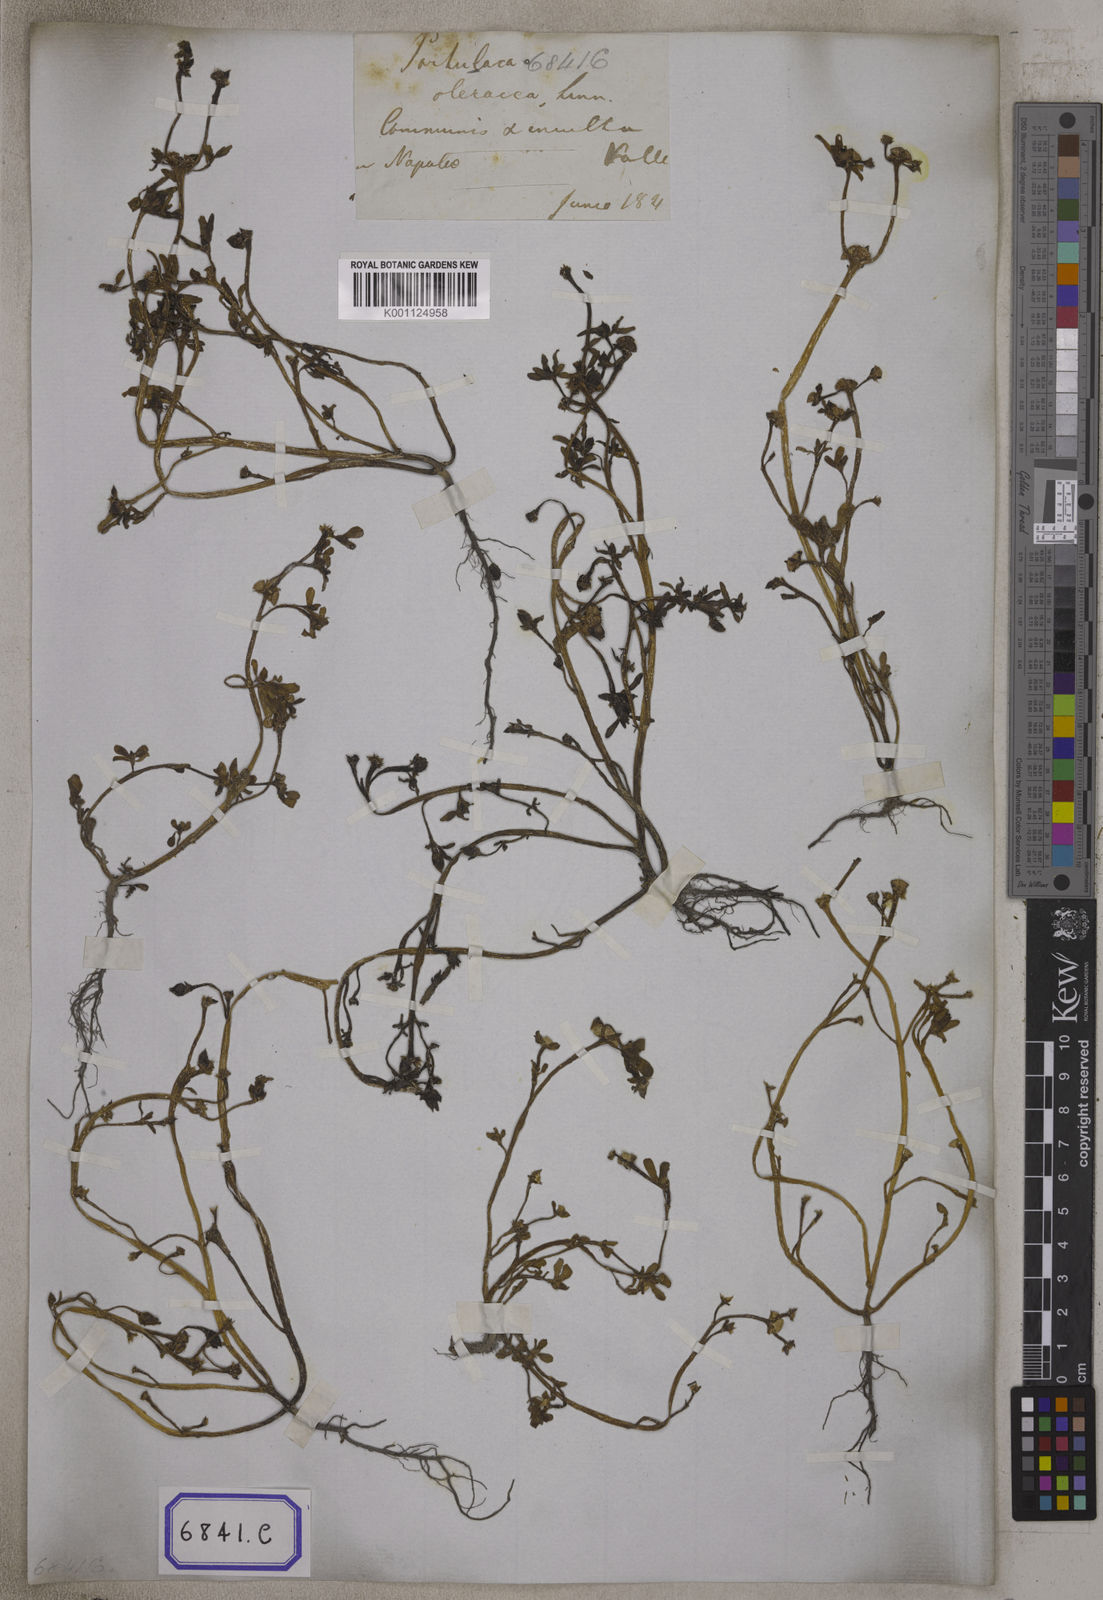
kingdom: Plantae
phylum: Tracheophyta
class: Magnoliopsida
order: Caryophyllales
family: Portulacaceae
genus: Portulaca
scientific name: Portulaca oleracea
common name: Common purslane
